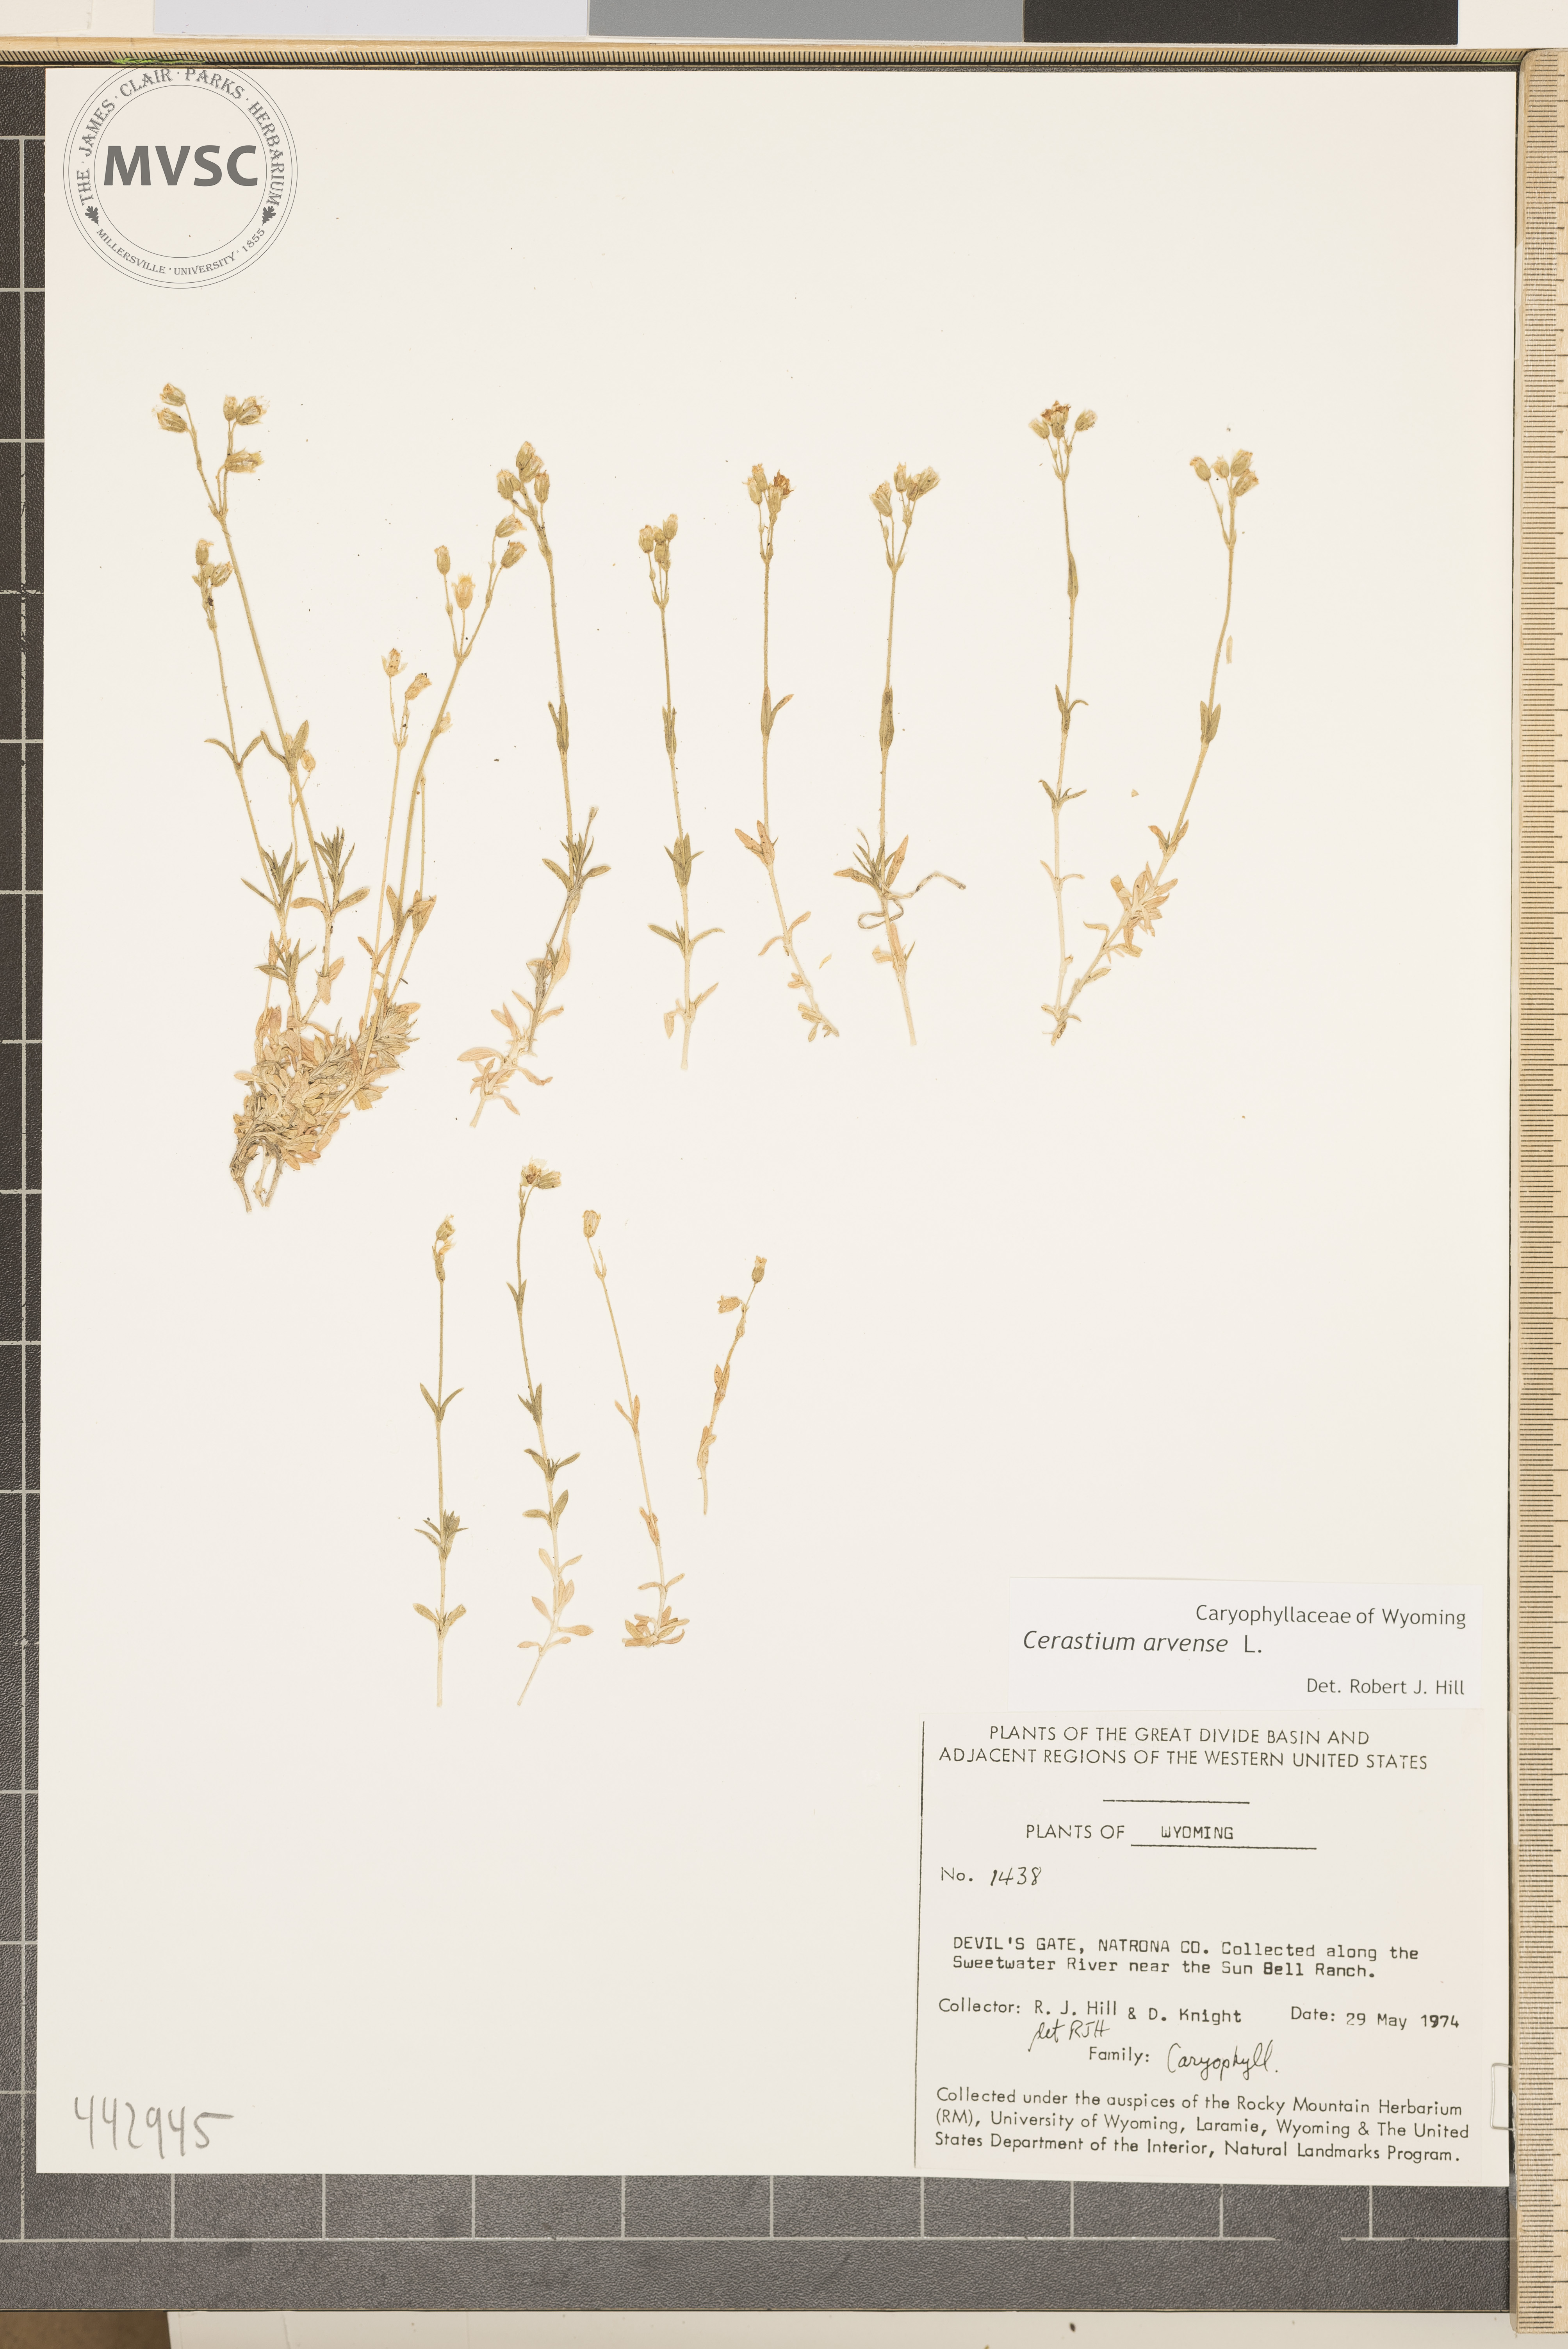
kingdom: Plantae
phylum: Tracheophyta
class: Magnoliopsida
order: Caryophyllales
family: Caryophyllaceae
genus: Cerastium
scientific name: Cerastium arvense
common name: Field mouse-ear
